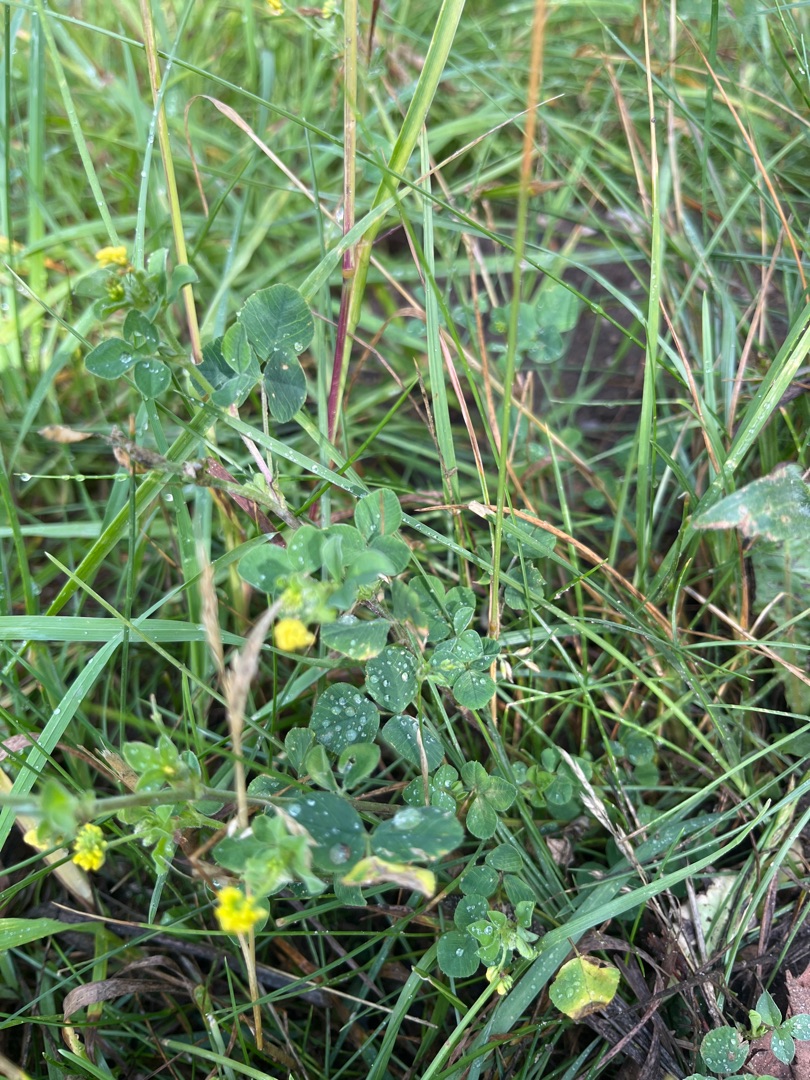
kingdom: Plantae
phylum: Tracheophyta
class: Magnoliopsida
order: Fabales
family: Fabaceae
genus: Medicago
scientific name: Medicago lupulina
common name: Humle-sneglebælg
